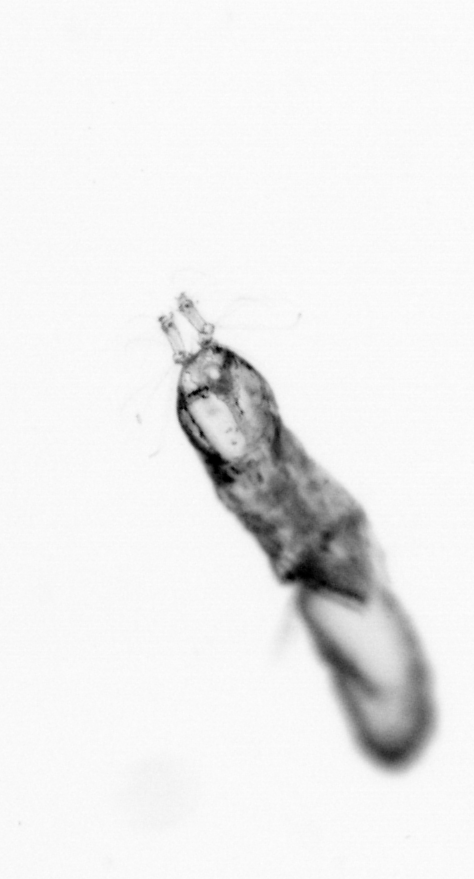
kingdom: Animalia
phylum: Arthropoda
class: Copepoda
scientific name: Copepoda
